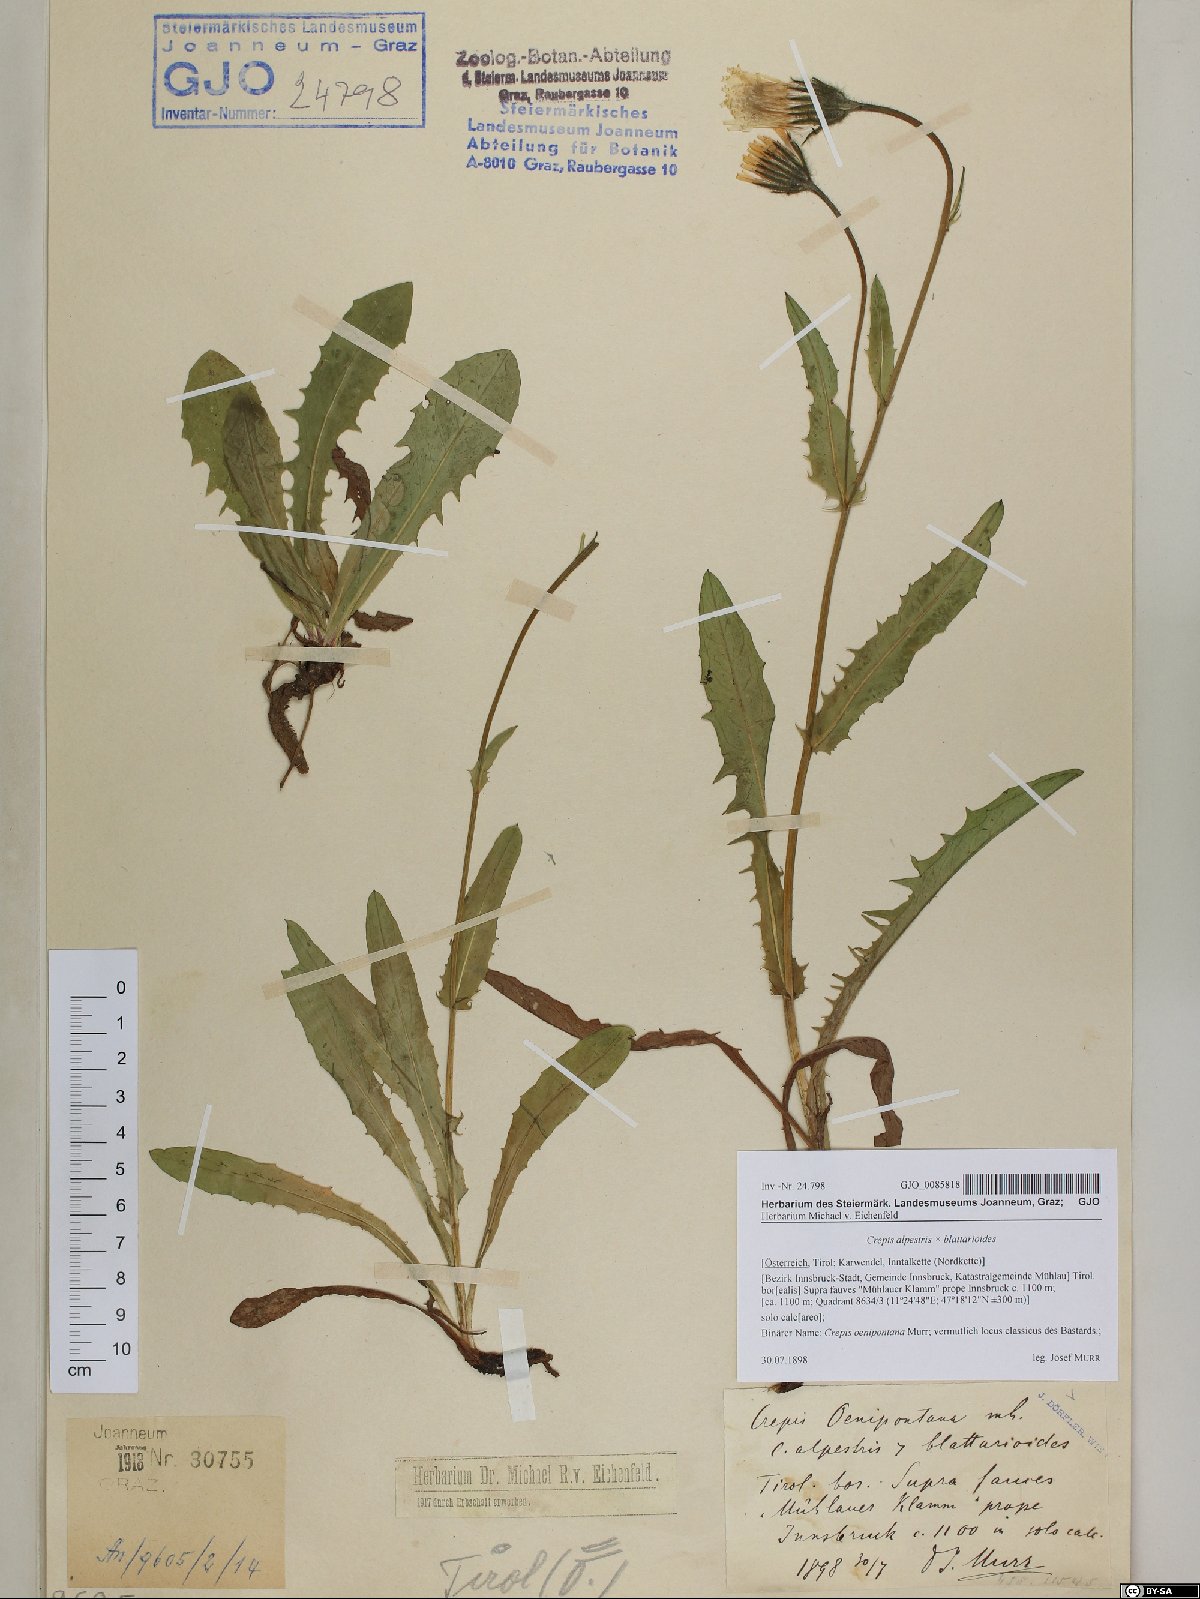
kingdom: Plantae
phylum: Tracheophyta
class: Magnoliopsida
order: Asterales
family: Asteraceae
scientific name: Asteraceae
